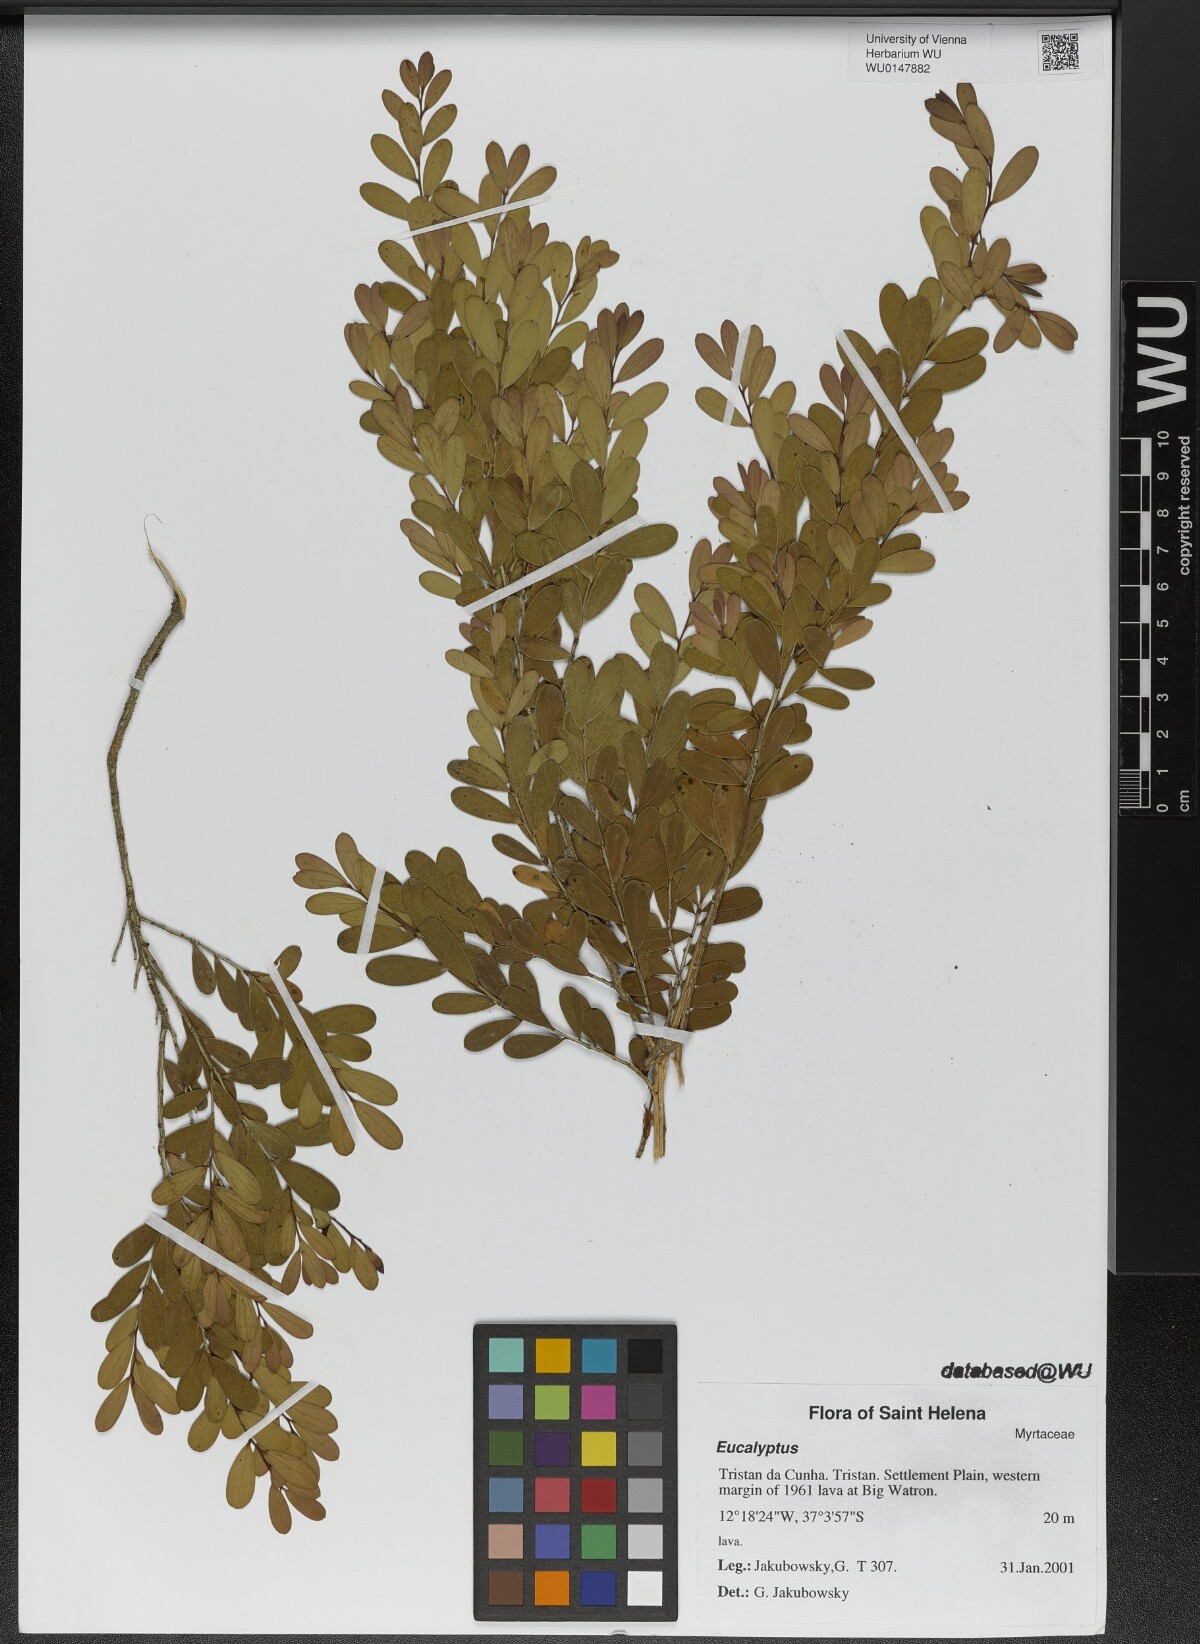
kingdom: Plantae
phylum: Tracheophyta
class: Magnoliopsida
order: Myrtales
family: Myrtaceae
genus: Eucalyptus
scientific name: Eucalyptus
